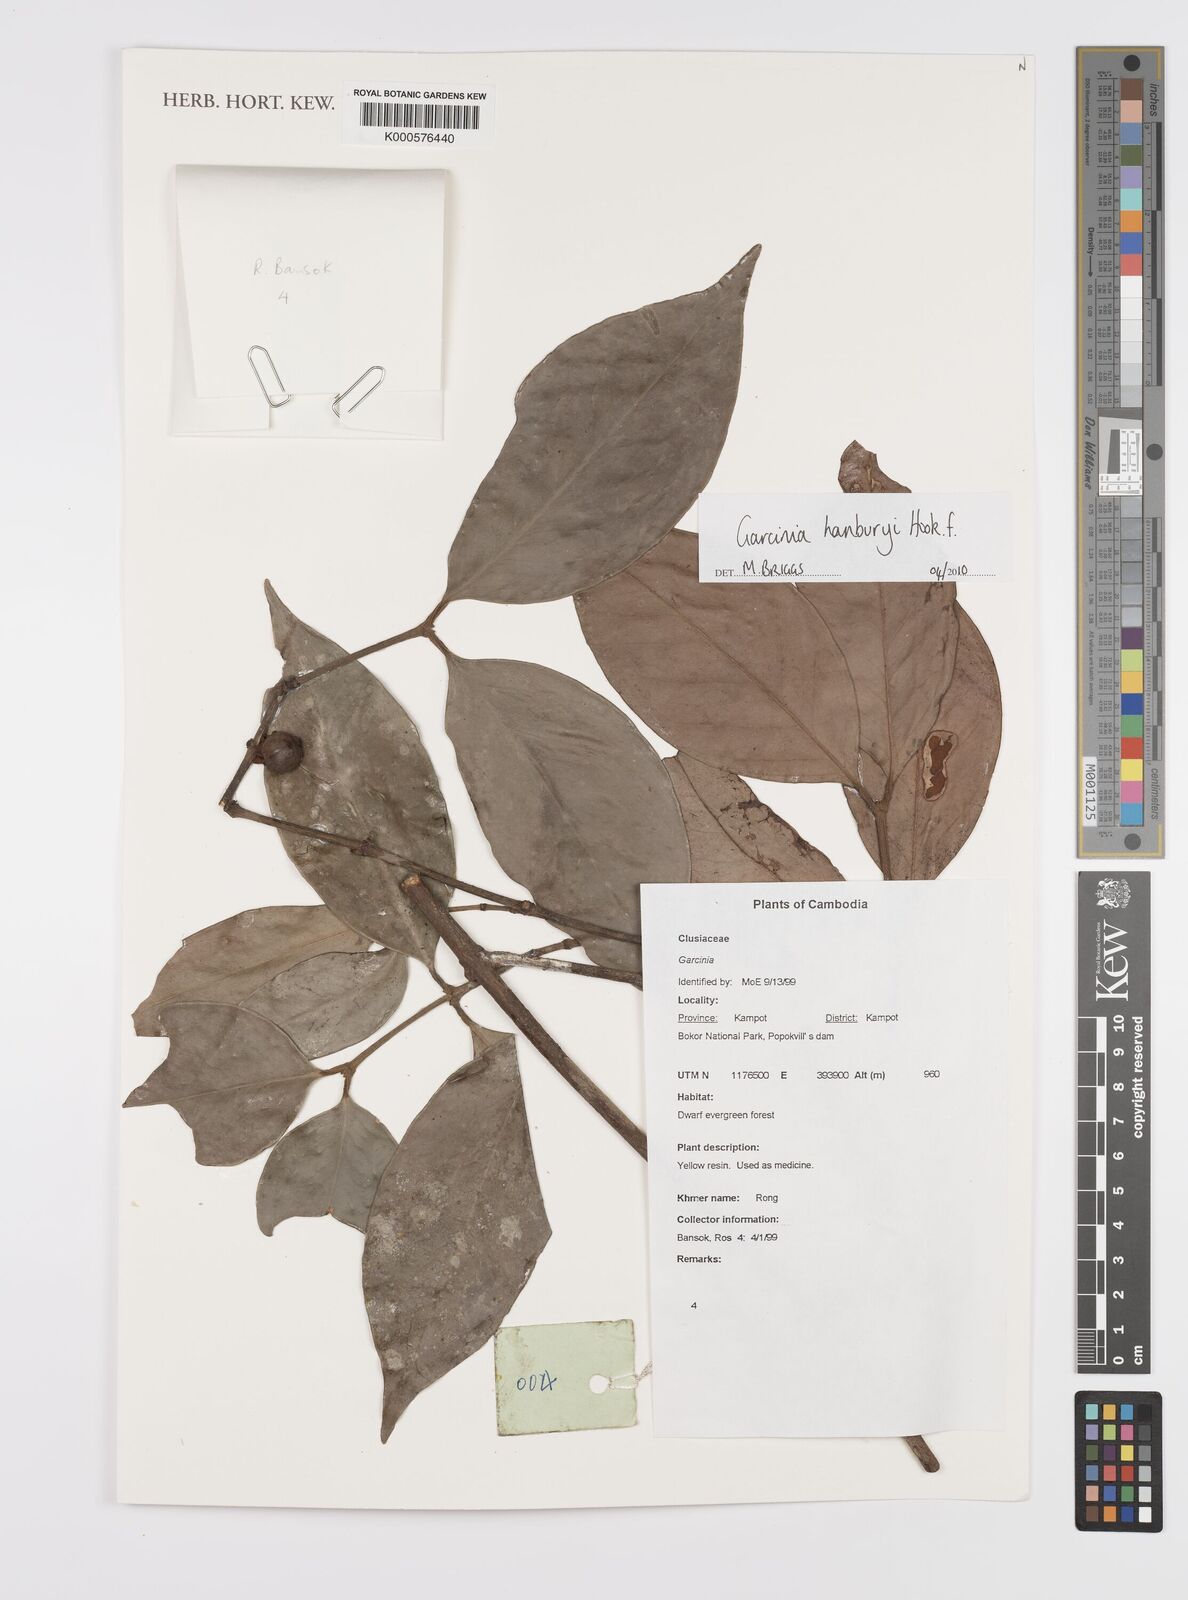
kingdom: Plantae
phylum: Tracheophyta
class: Magnoliopsida
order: Malpighiales
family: Clusiaceae
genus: Garcinia
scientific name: Garcinia hanburyi
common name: Siam gamboge
